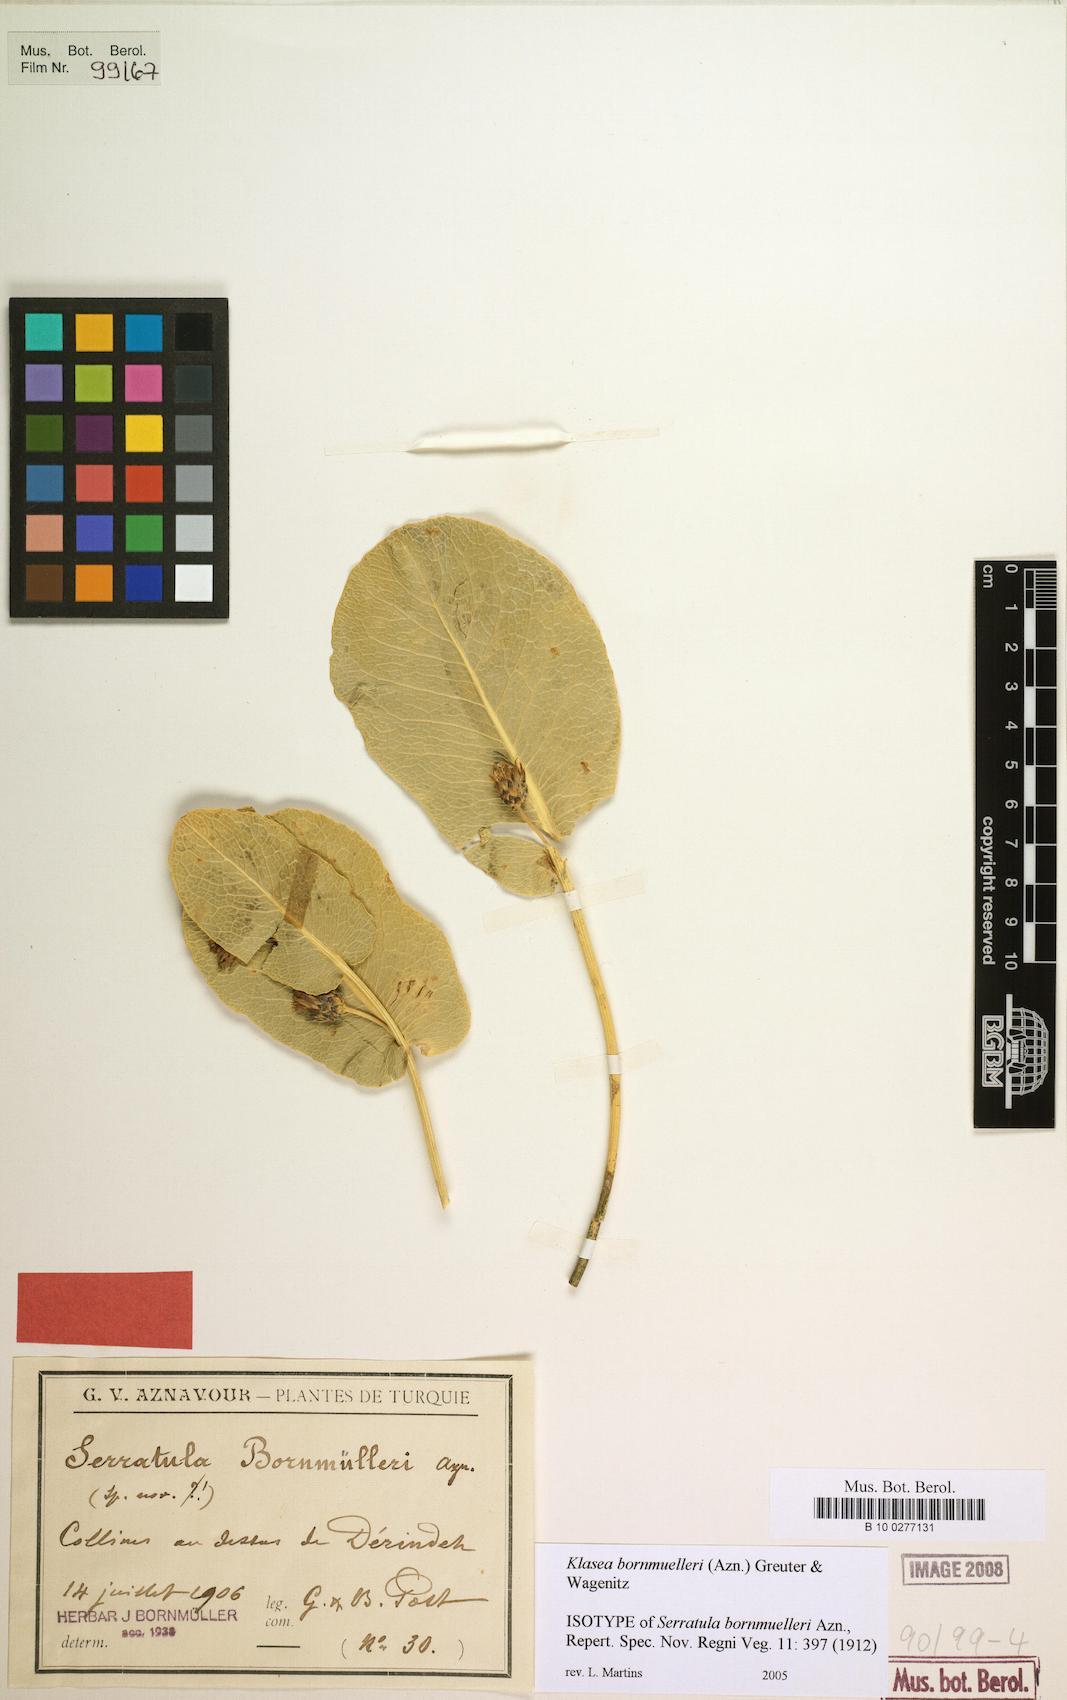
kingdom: Plantae
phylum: Tracheophyta
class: Magnoliopsida
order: Asterales
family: Asteraceae
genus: Klasea
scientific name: Klasea bornmuelleri
